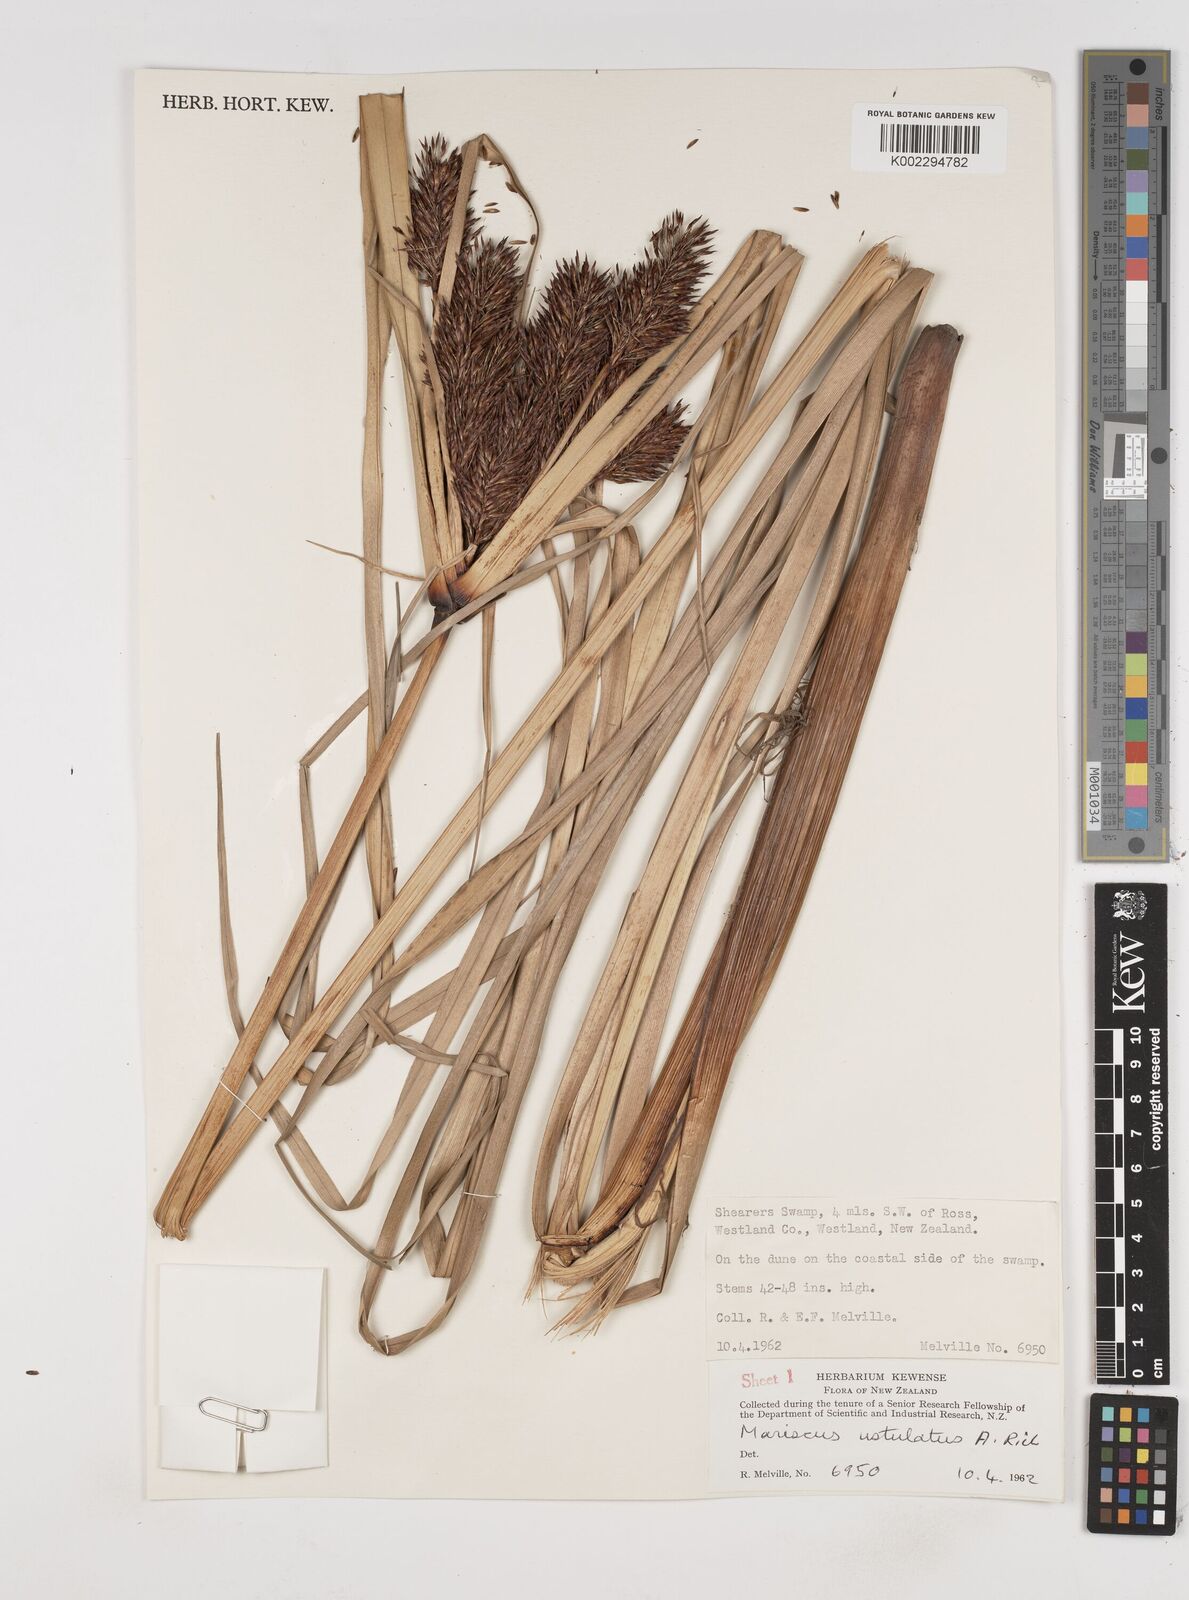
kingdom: Plantae
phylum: Tracheophyta
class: Liliopsida
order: Poales
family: Cyperaceae
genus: Cyperus
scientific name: Cyperus ustulatus
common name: Giant umbrella-sedge
